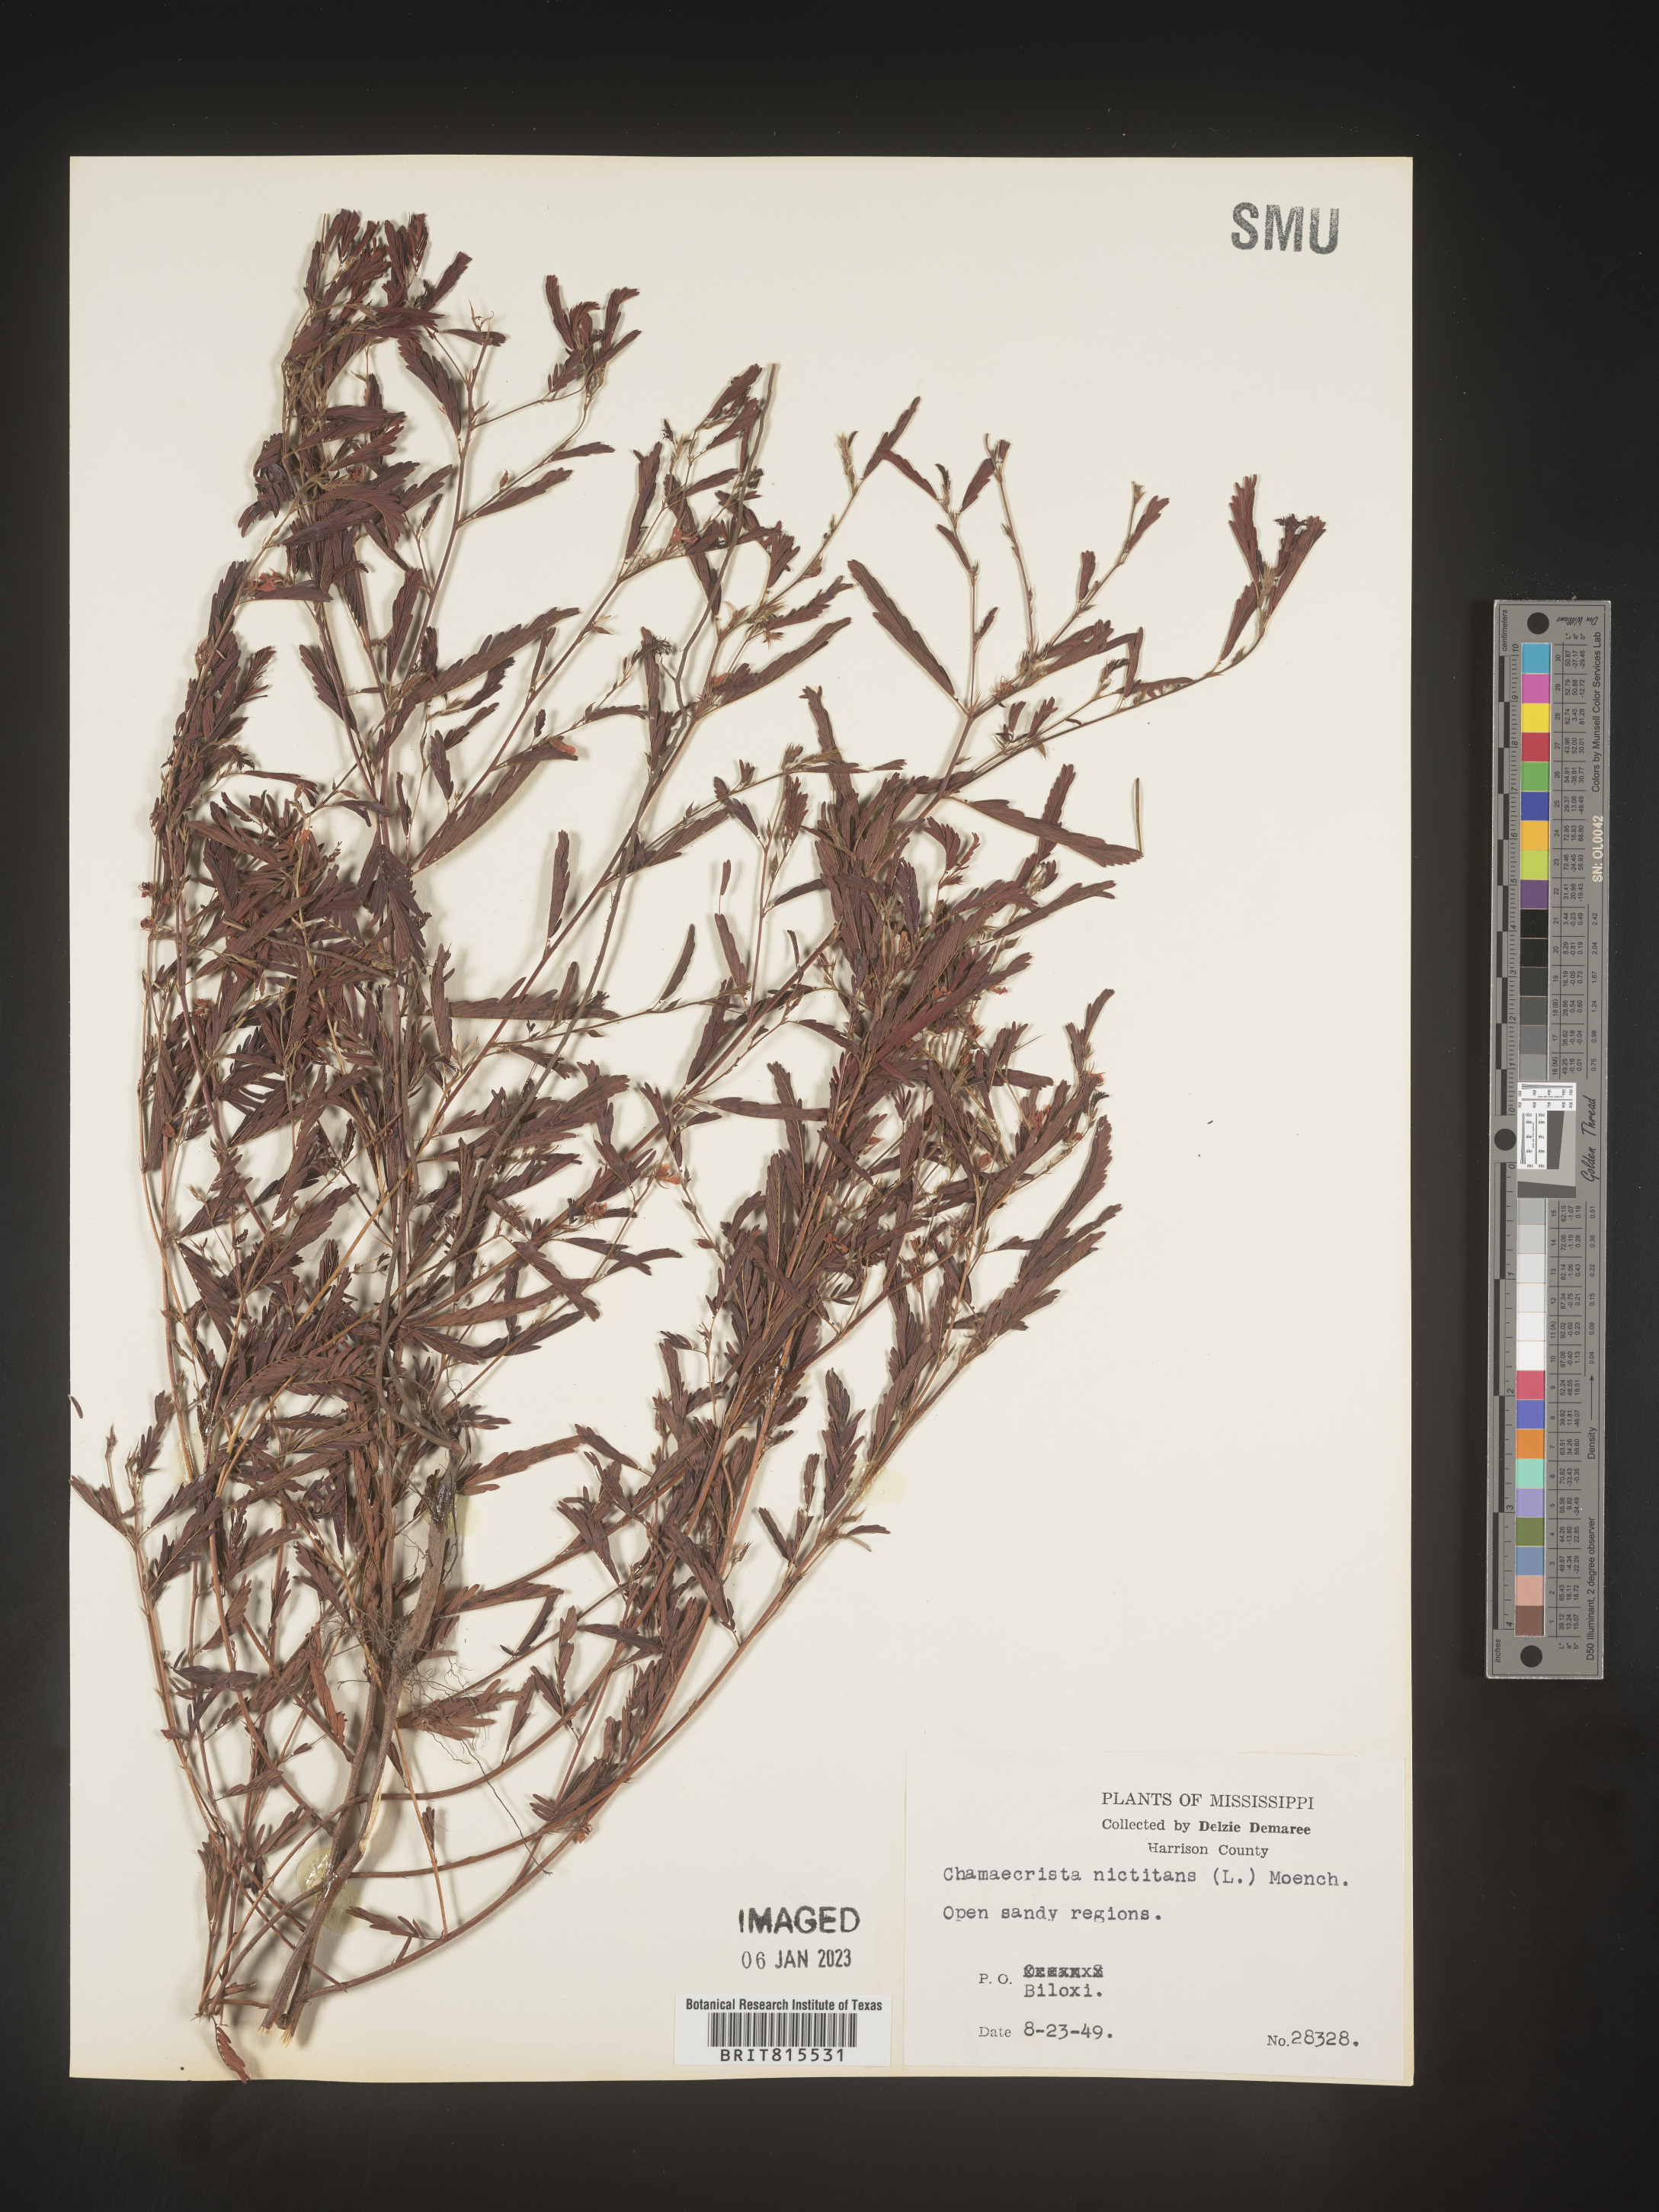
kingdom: Plantae
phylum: Tracheophyta
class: Magnoliopsida
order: Fabales
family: Fabaceae
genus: Chamaecrista
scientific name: Chamaecrista nictitans
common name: Sensitive cassia
